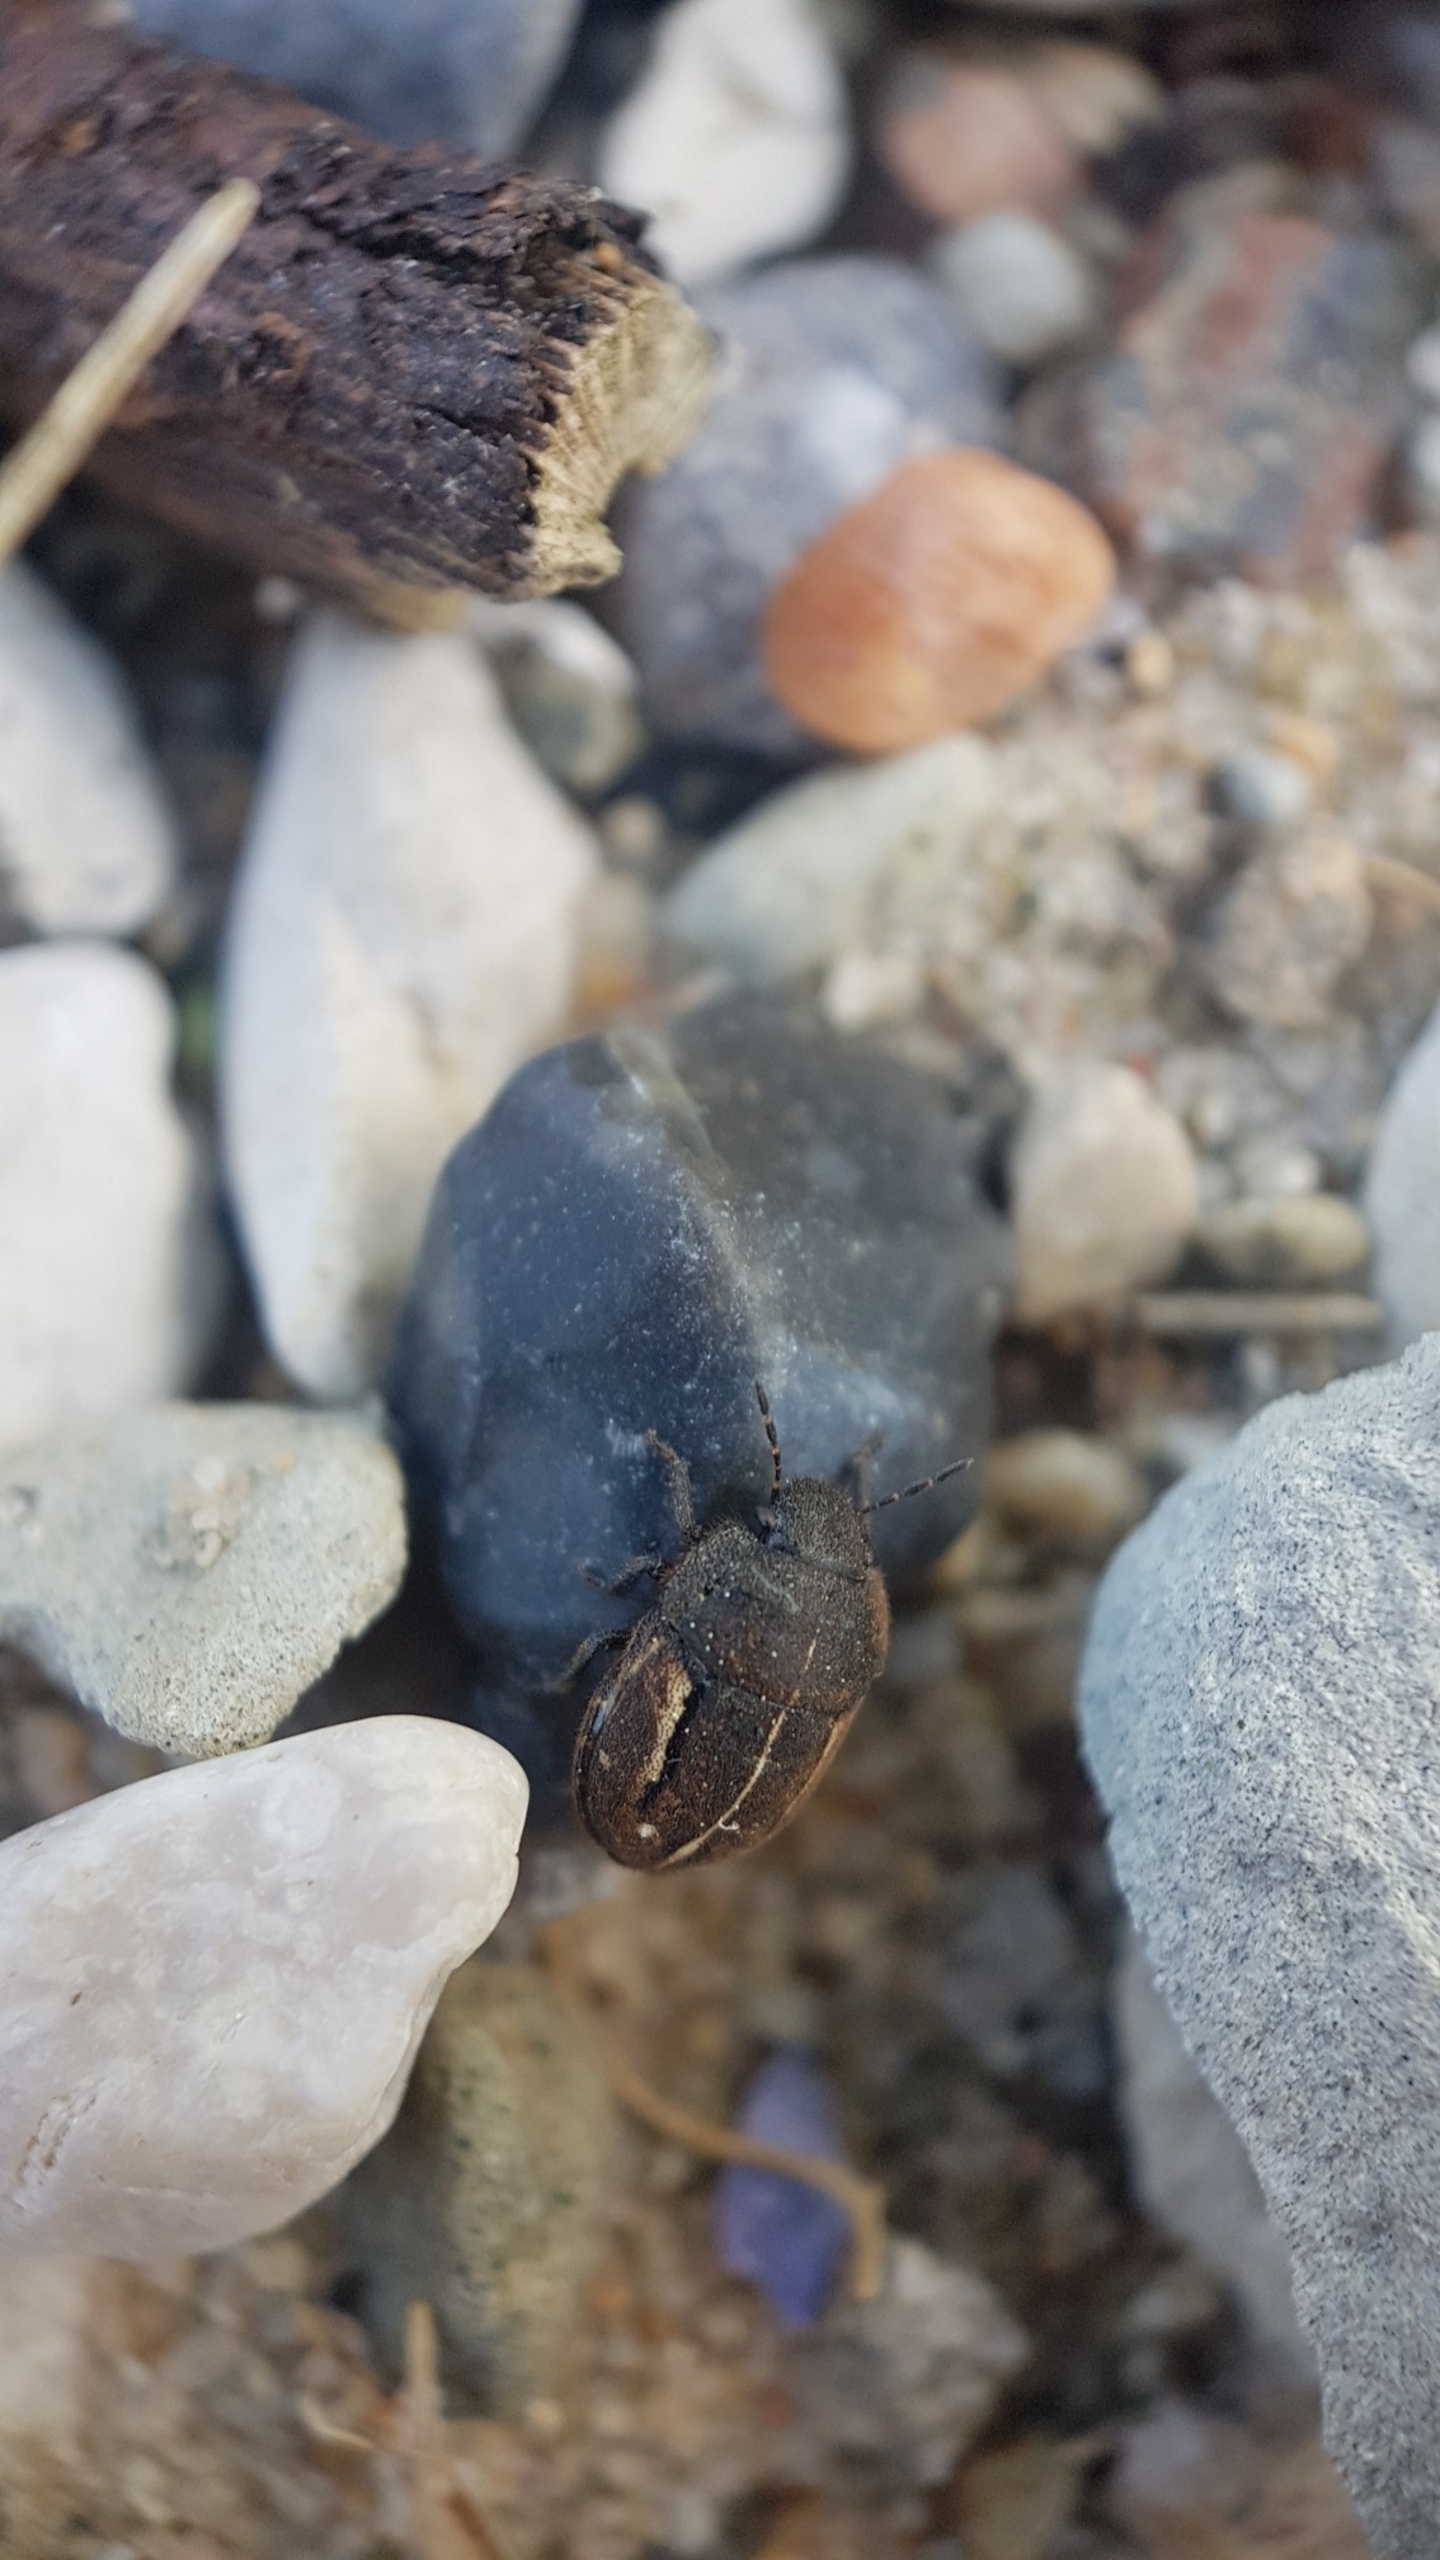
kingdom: Animalia
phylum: Arthropoda
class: Insecta
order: Hemiptera
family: Scutelleridae
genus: Odontoscelis
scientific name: Odontoscelis fuliginosa
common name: Stor sandtæge
